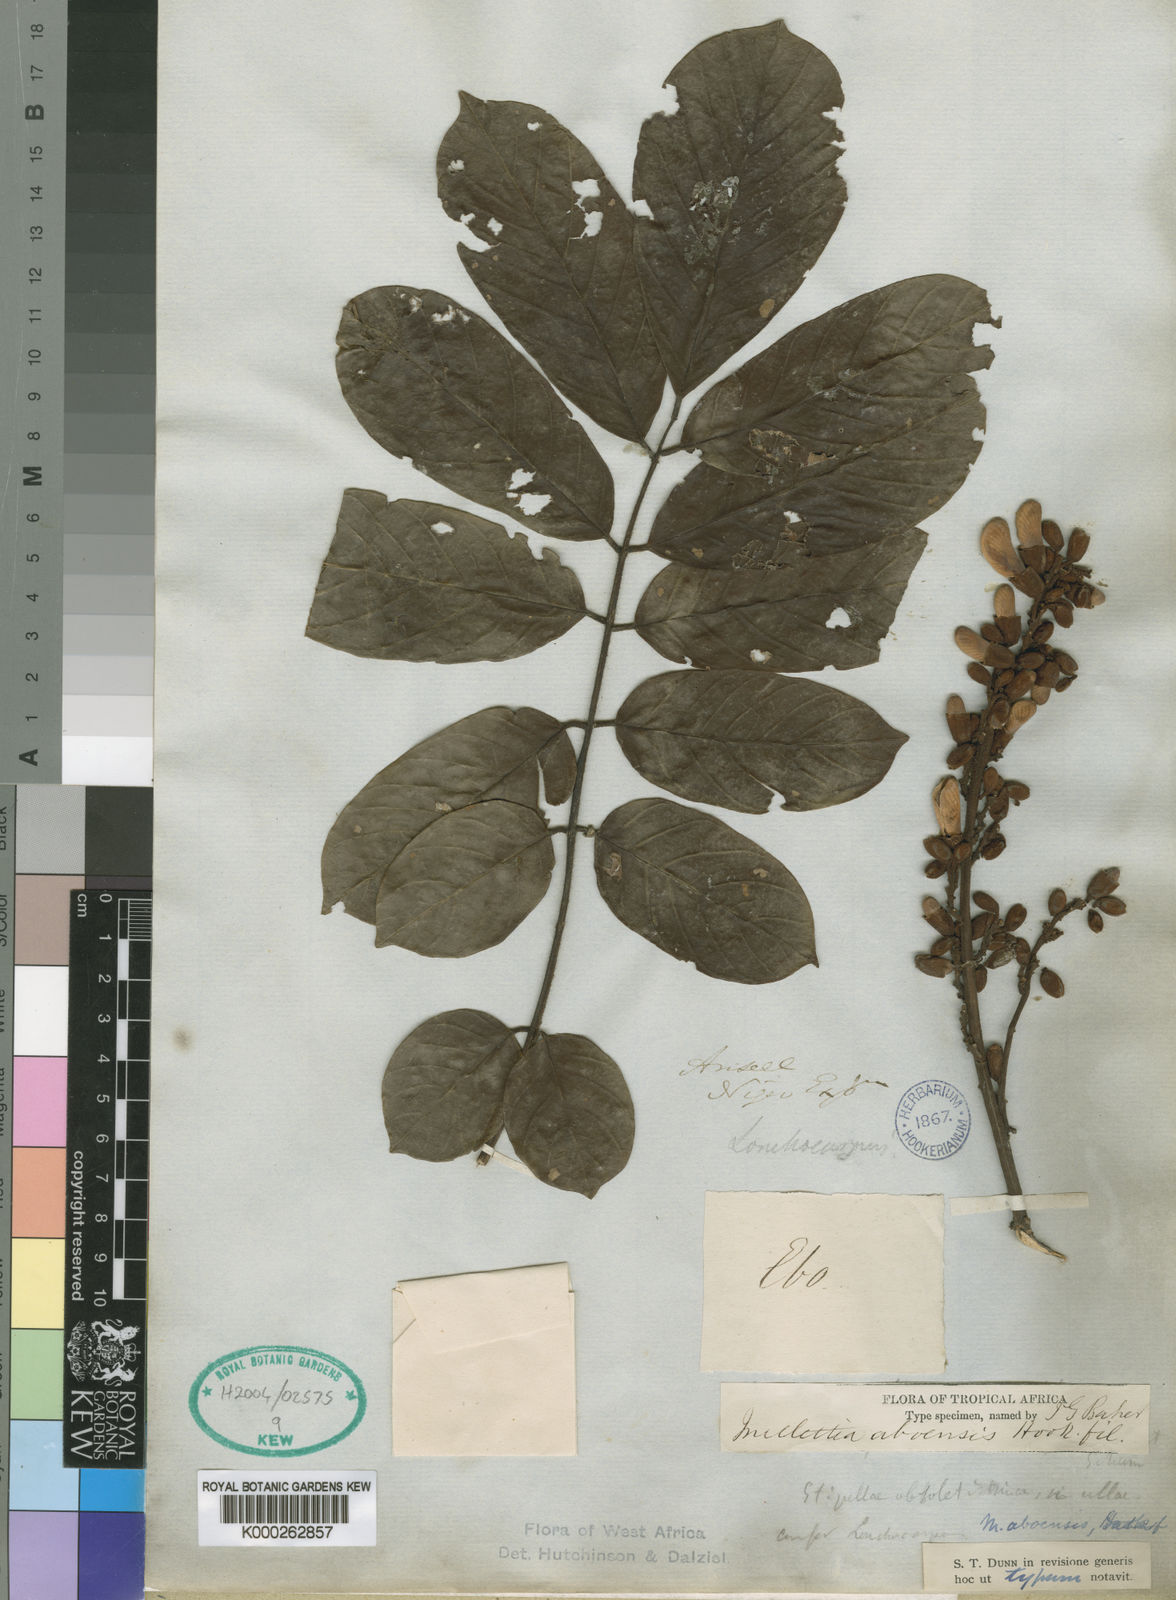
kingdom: Plantae
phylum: Tracheophyta
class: Magnoliopsida
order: Fabales
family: Fabaceae
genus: Millettia
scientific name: Millettia aboensis
